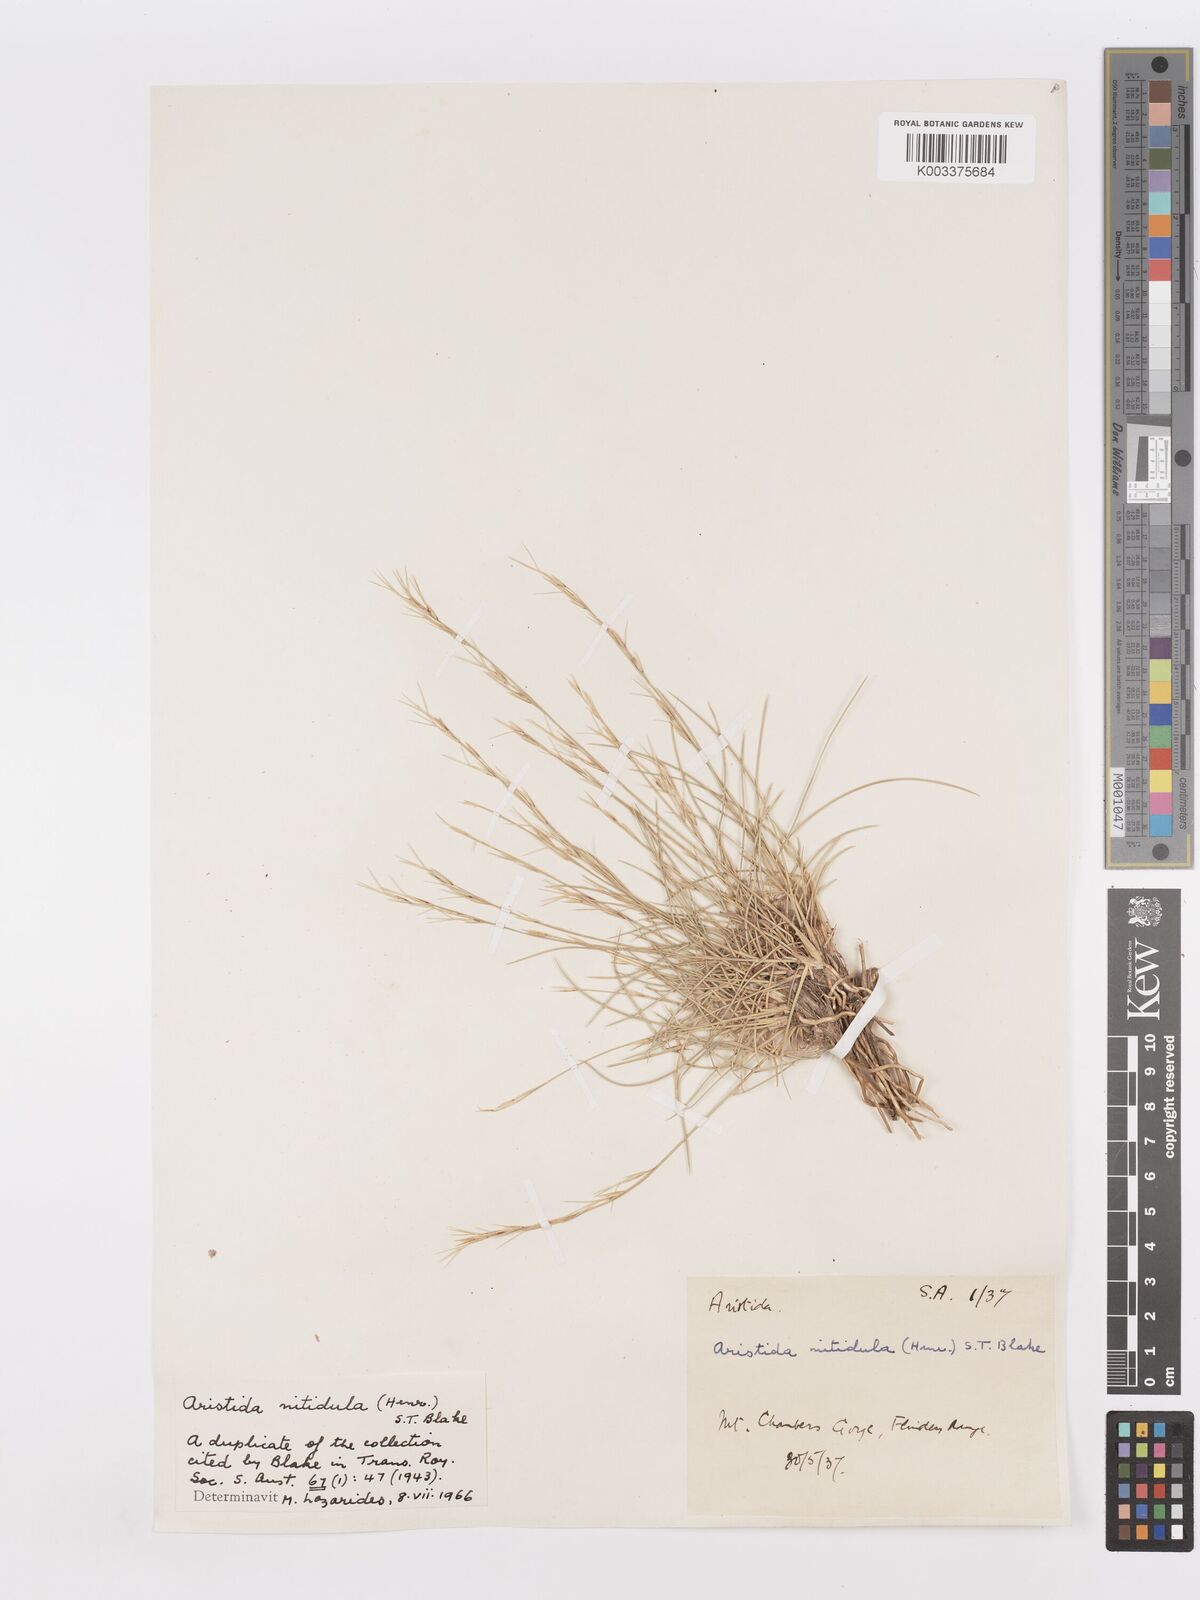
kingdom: Plantae
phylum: Tracheophyta
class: Liliopsida
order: Poales
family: Poaceae
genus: Aristida
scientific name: Aristida nitidula
